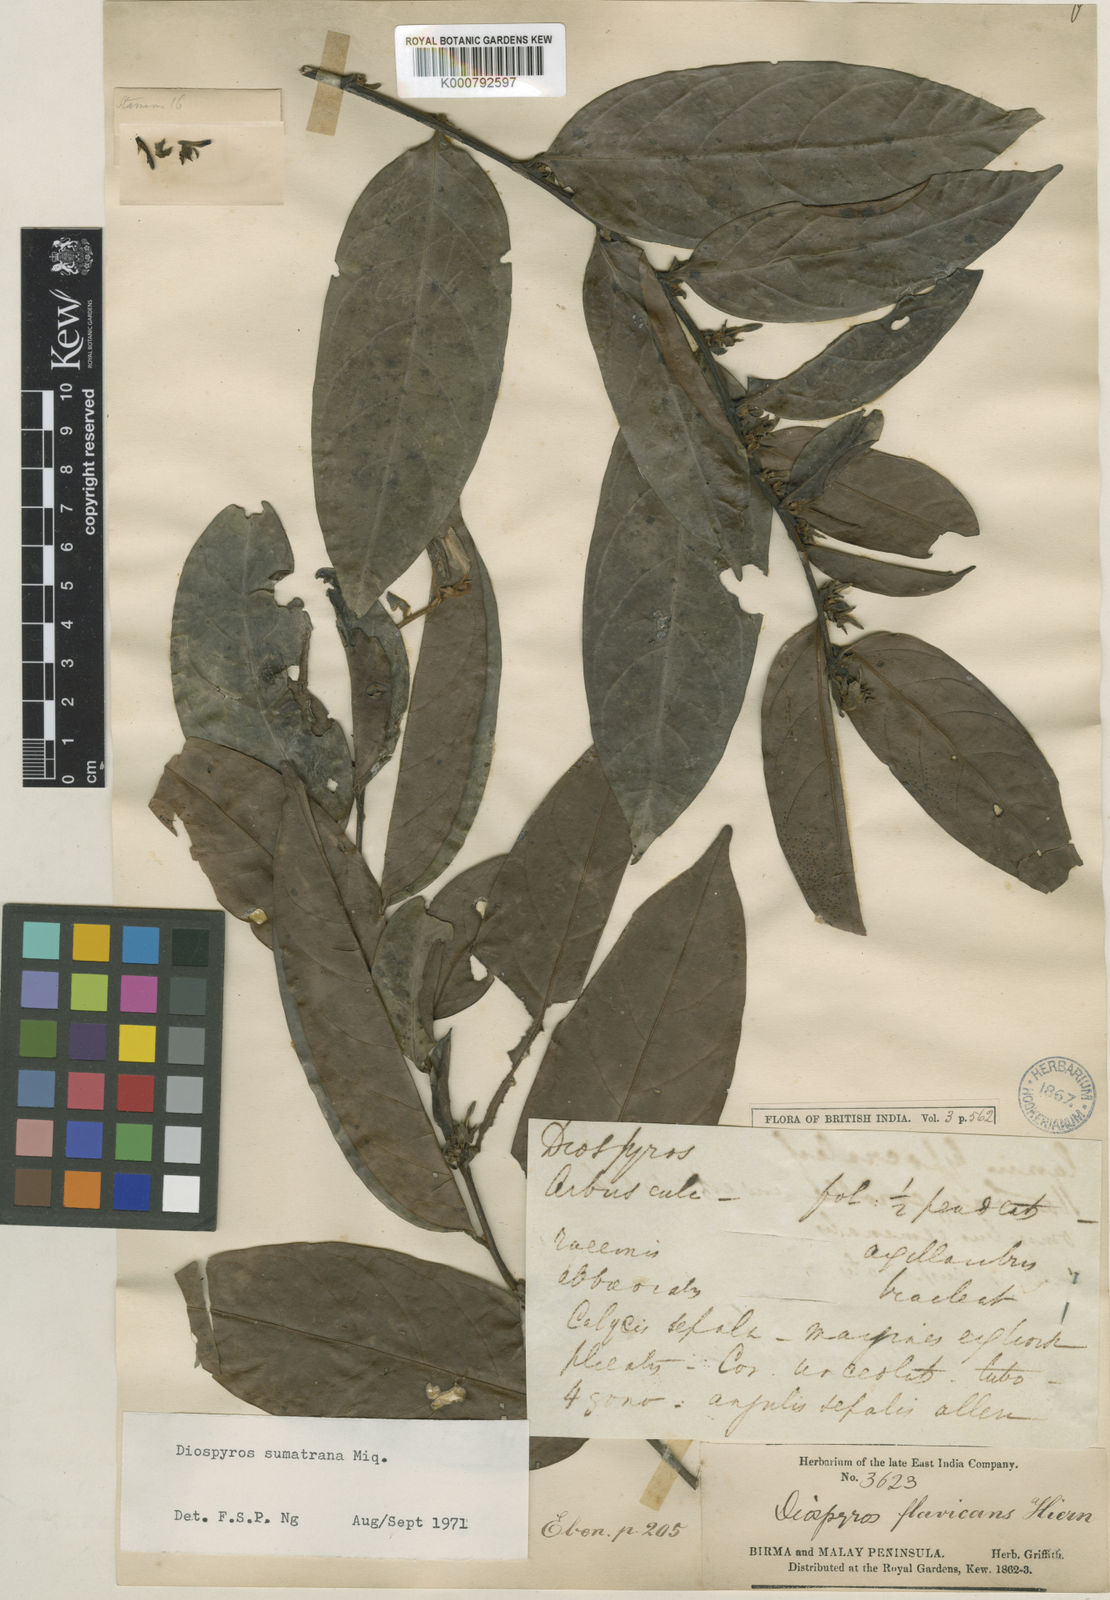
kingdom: Plantae
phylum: Tracheophyta
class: Magnoliopsida
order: Ericales
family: Ebenaceae
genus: Diospyros
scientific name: Diospyros sumatrana
